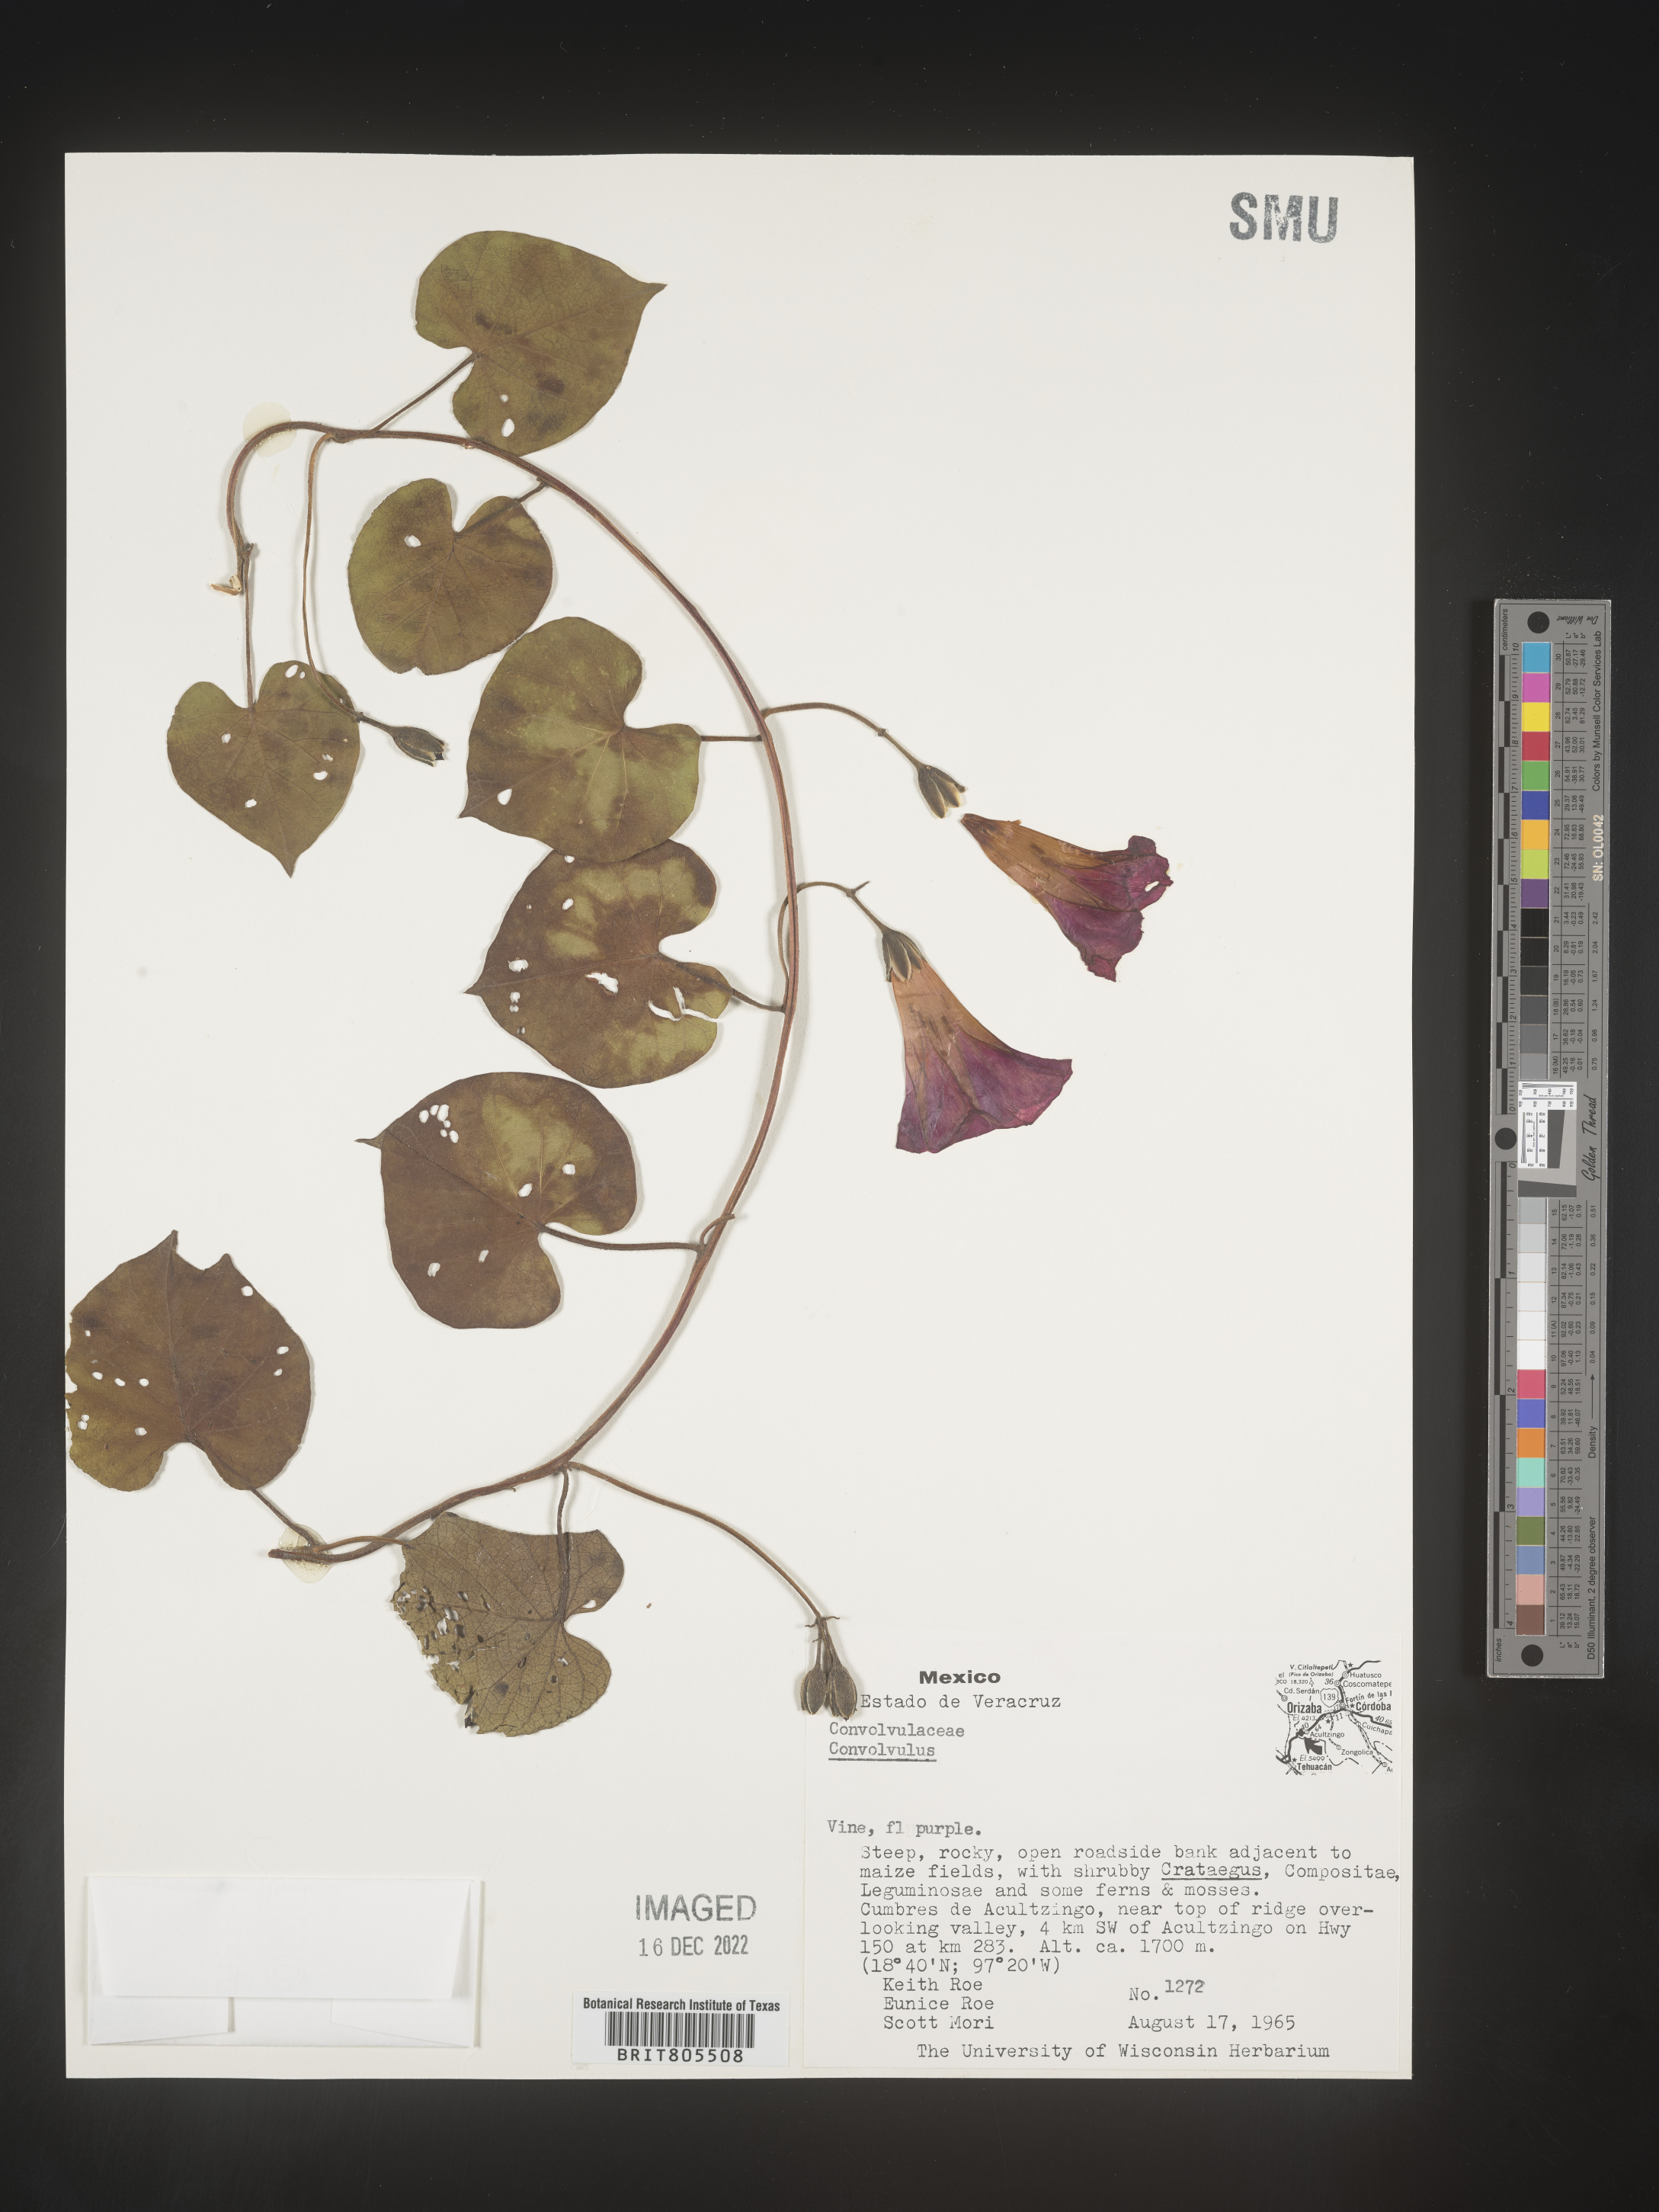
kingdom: Plantae
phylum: Tracheophyta
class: Magnoliopsida
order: Solanales
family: Convolvulaceae
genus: Ipomoea
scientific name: Ipomoea
